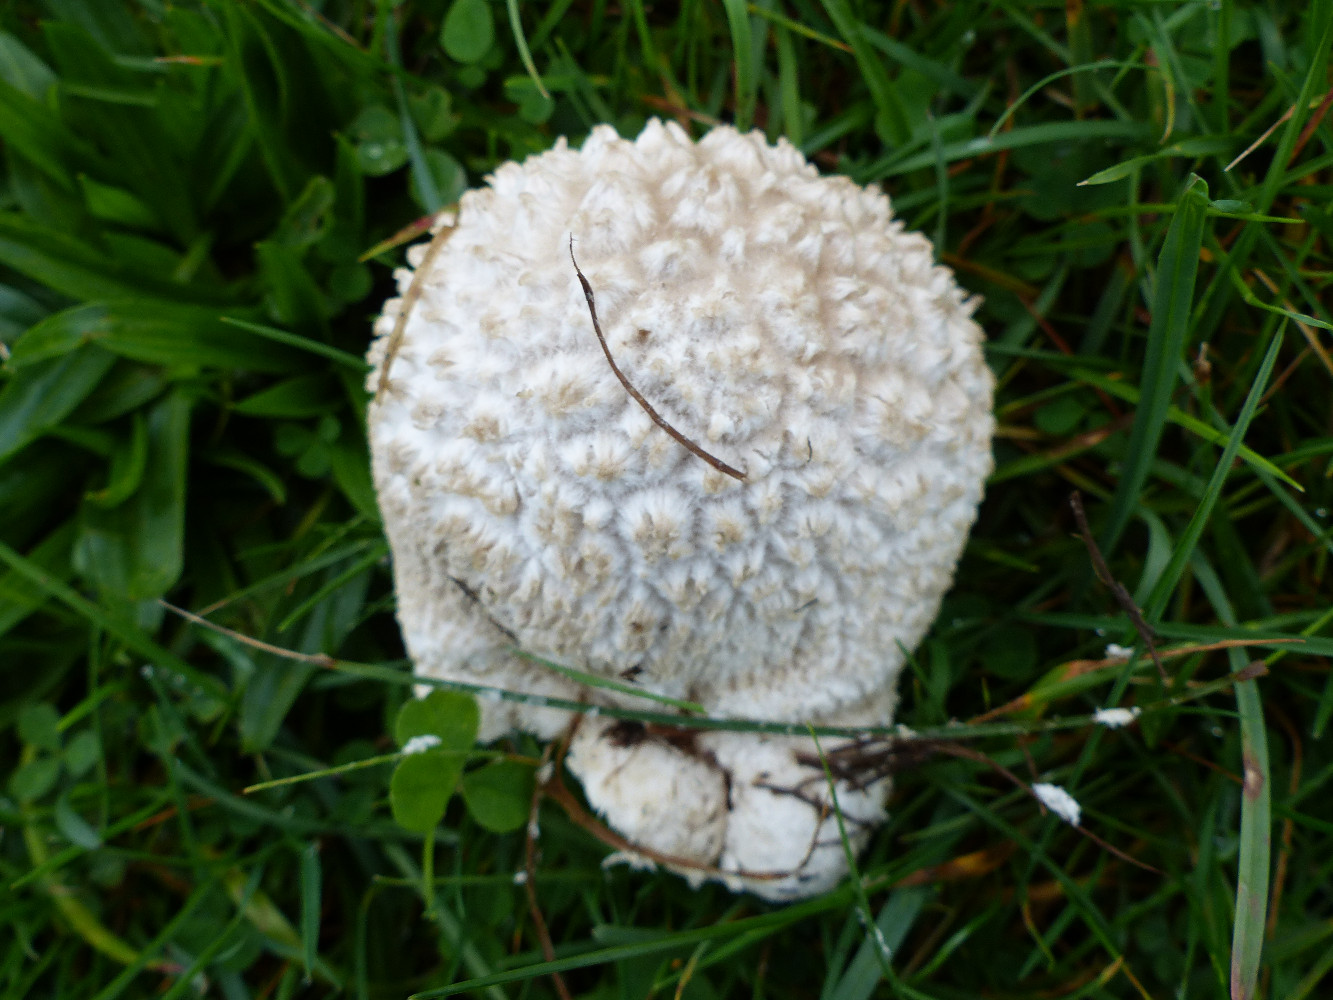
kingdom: Fungi
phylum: Basidiomycota
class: Agaricomycetes
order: Agaricales
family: Lycoperdaceae
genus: Bovistella
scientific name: Bovistella utriformis
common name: skællet støvbold
